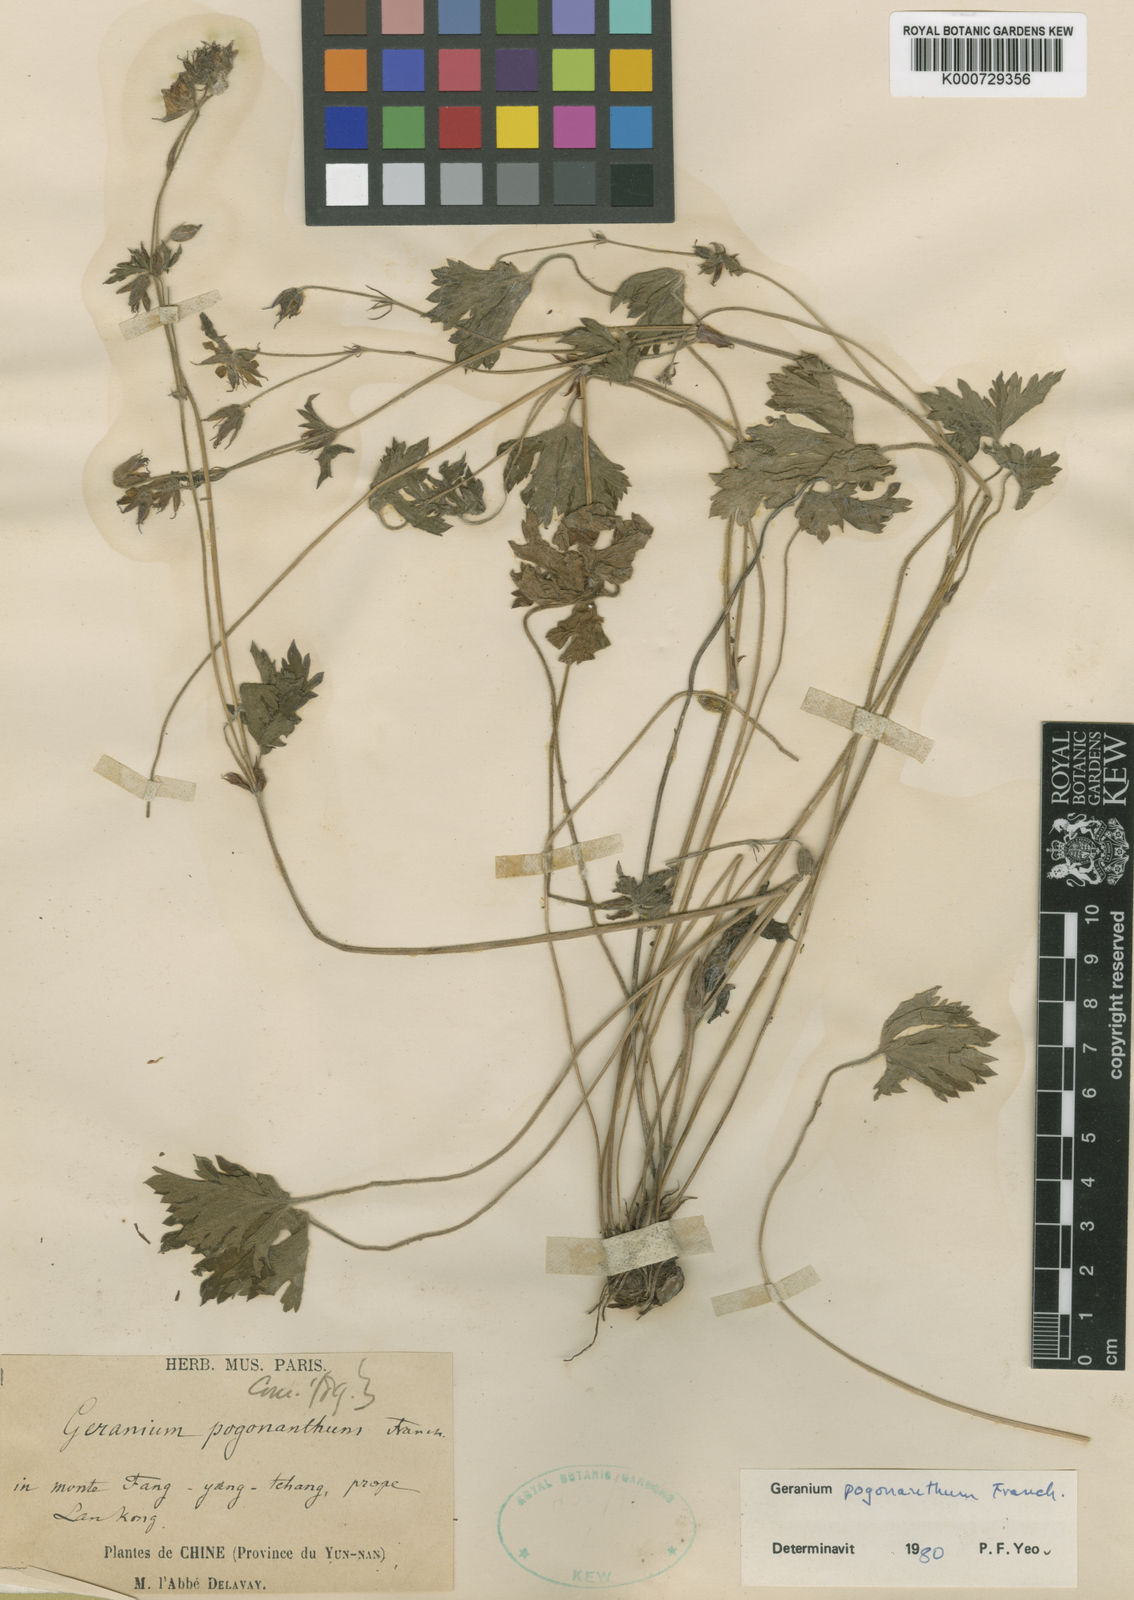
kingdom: Plantae
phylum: Tracheophyta
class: Magnoliopsida
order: Geraniales
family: Geraniaceae
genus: Geranium
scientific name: Geranium pogonanthum
